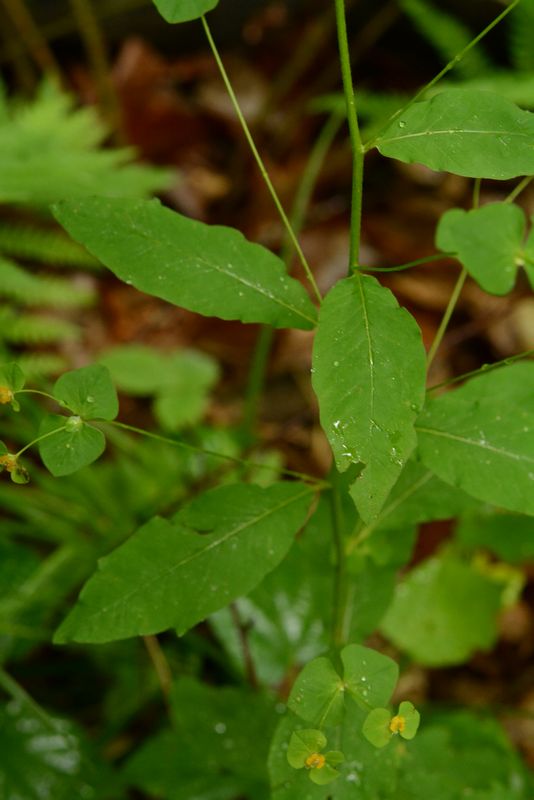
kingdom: Plantae
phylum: Tracheophyta
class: Magnoliopsida
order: Malpighiales
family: Euphorbiaceae
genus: Euphorbia
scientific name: Euphorbia squamosa
